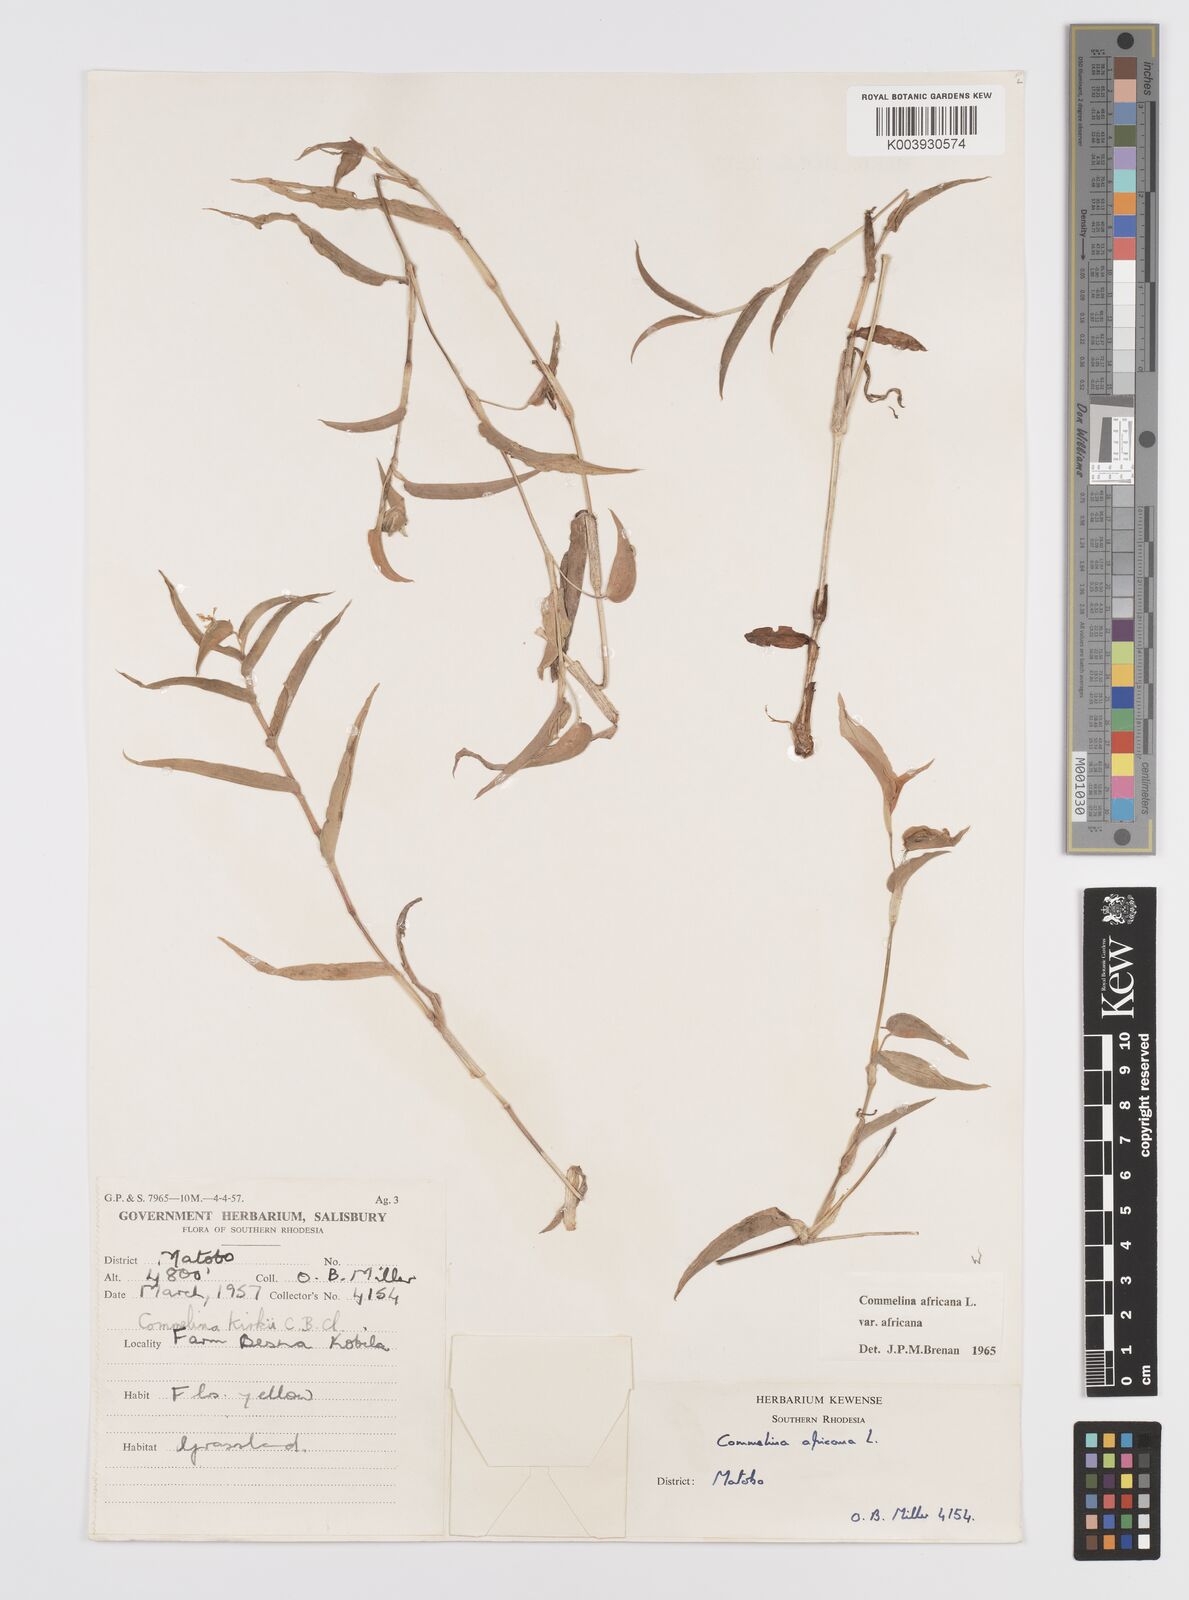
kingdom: Plantae
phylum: Tracheophyta
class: Liliopsida
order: Commelinales
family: Commelinaceae
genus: Commelina
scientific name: Commelina africana
